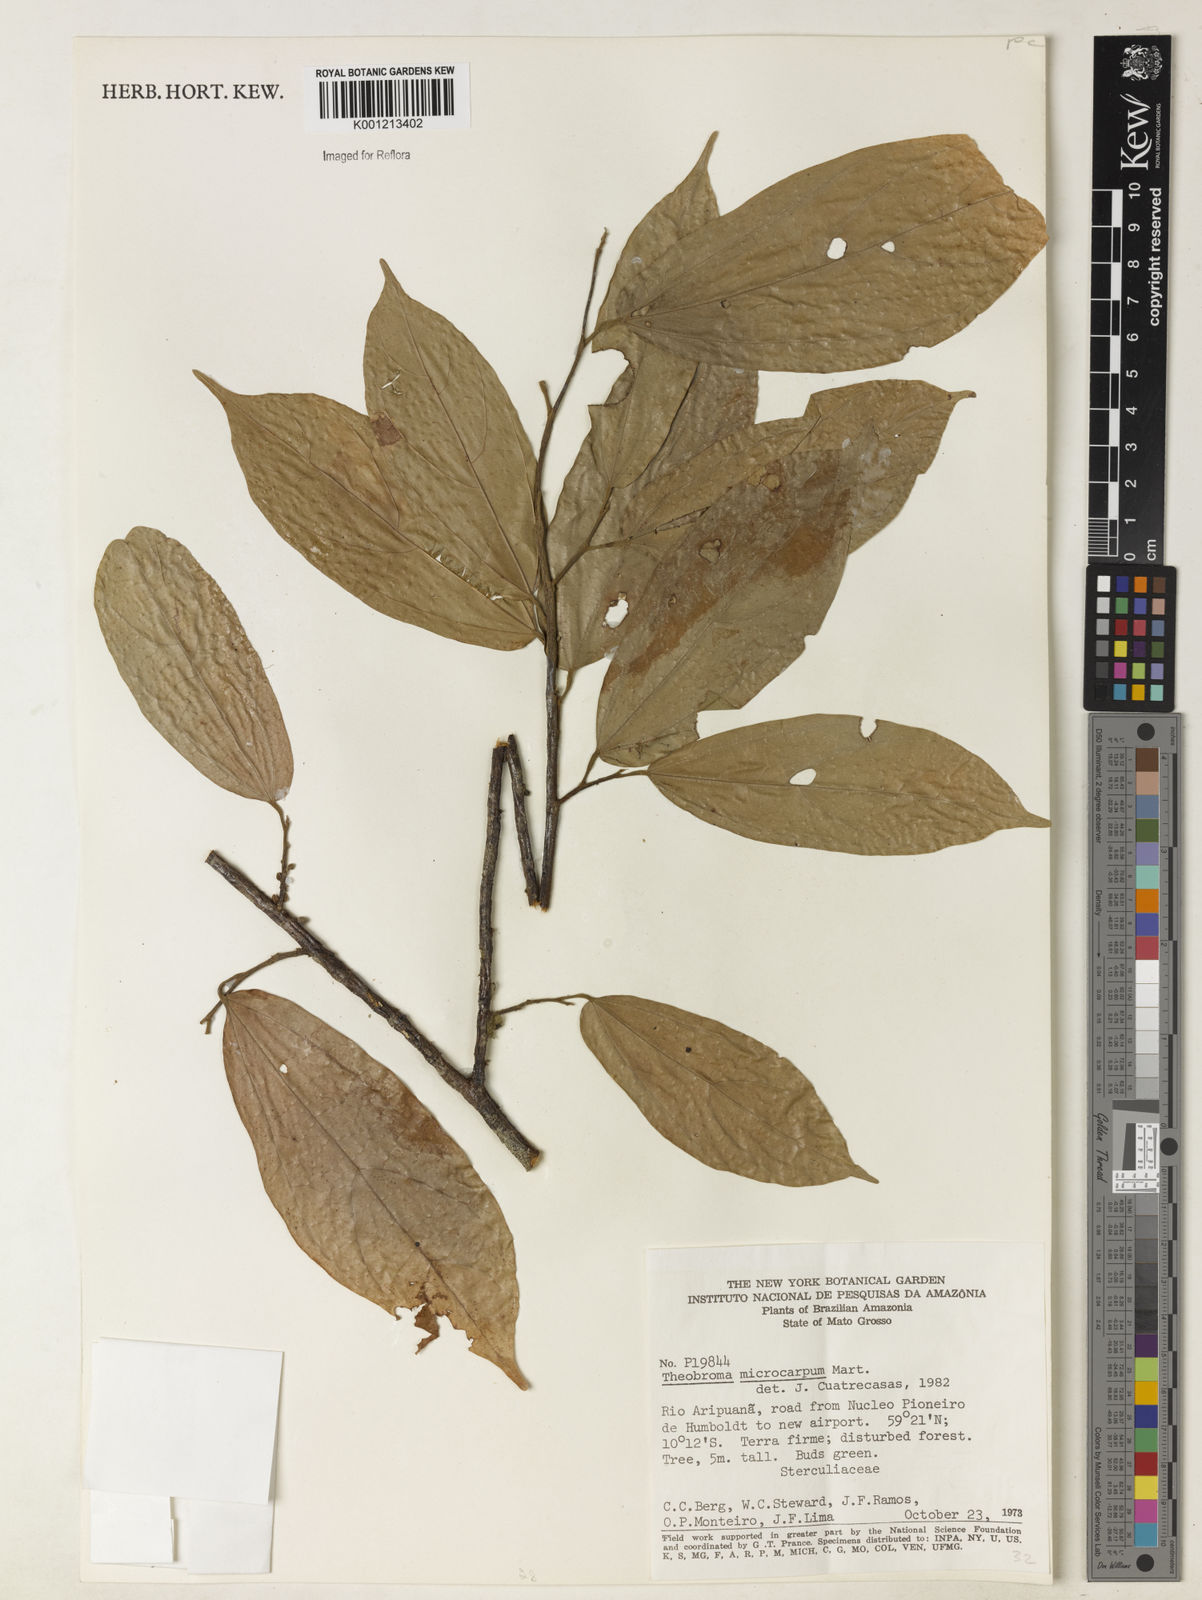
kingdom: Plantae
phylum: Tracheophyta
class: Magnoliopsida
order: Malvales
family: Malvaceae
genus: Theobroma
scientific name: Theobroma microcarpum
